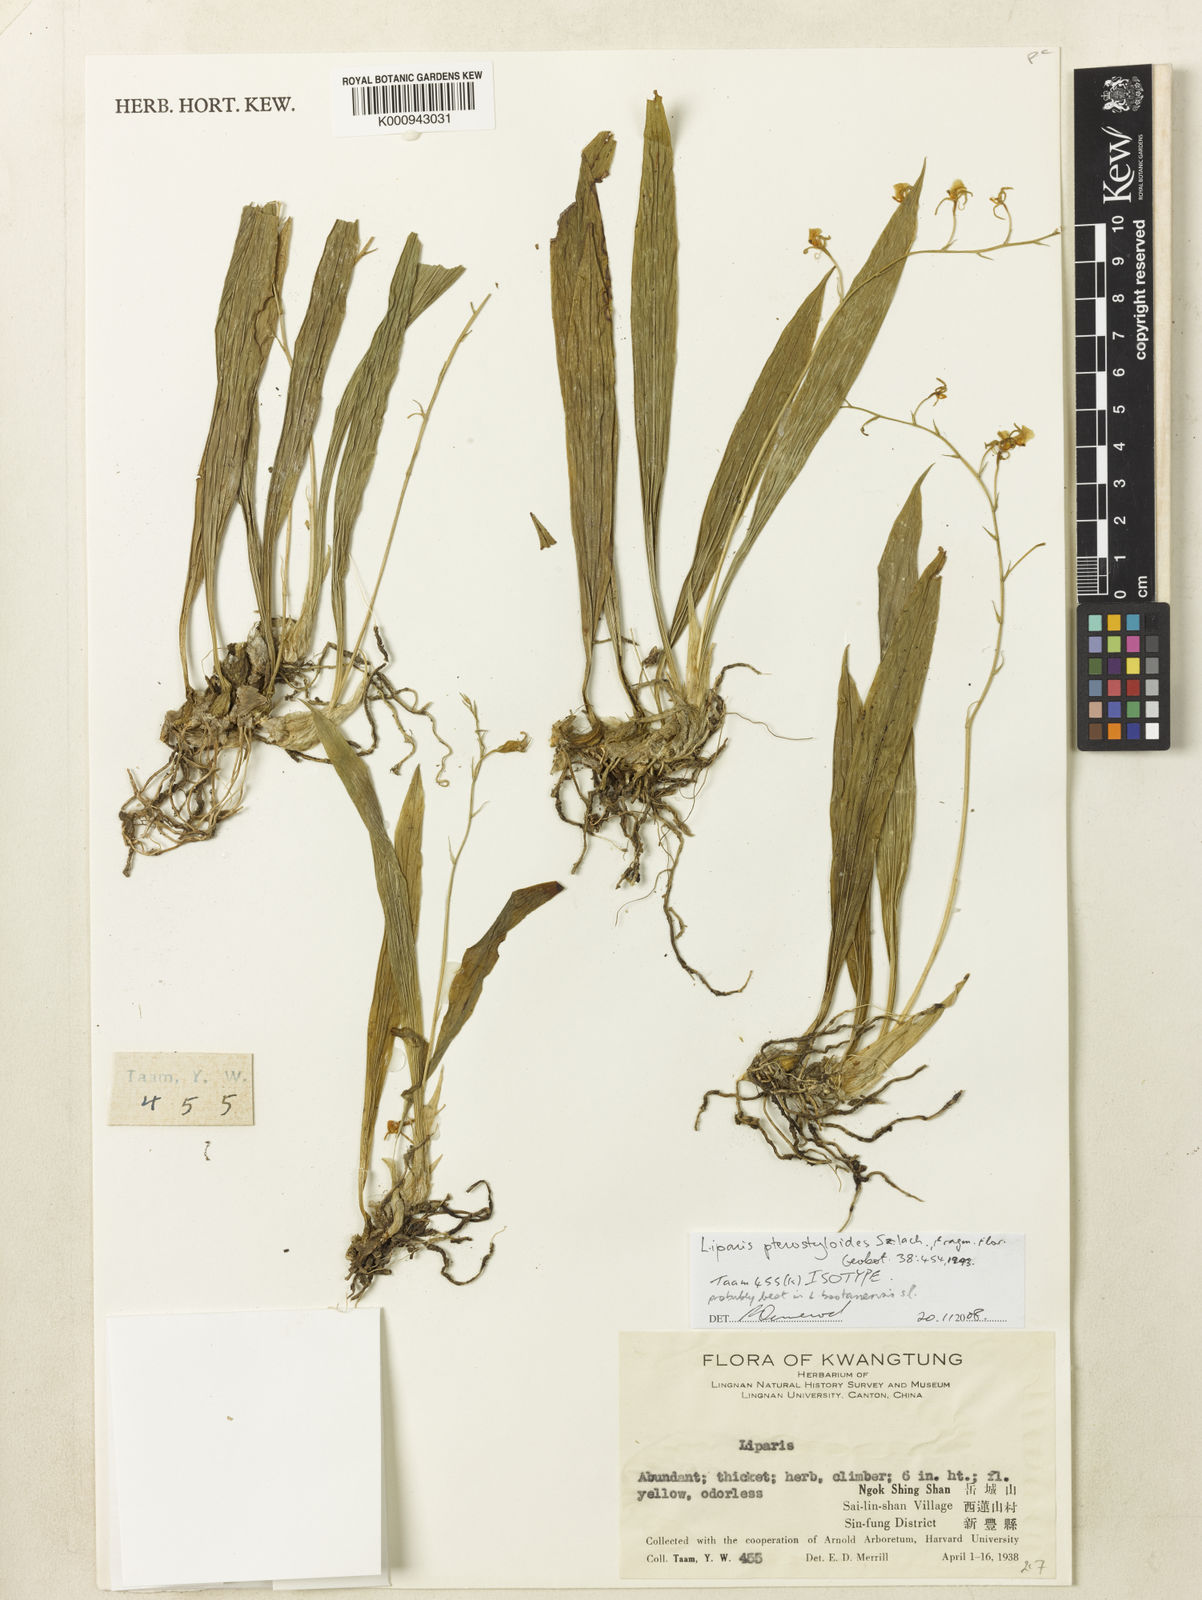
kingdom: Plantae
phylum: Tracheophyta
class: Liliopsida
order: Asparagales
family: Orchidaceae
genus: Liparis
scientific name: Liparis viridiflora
